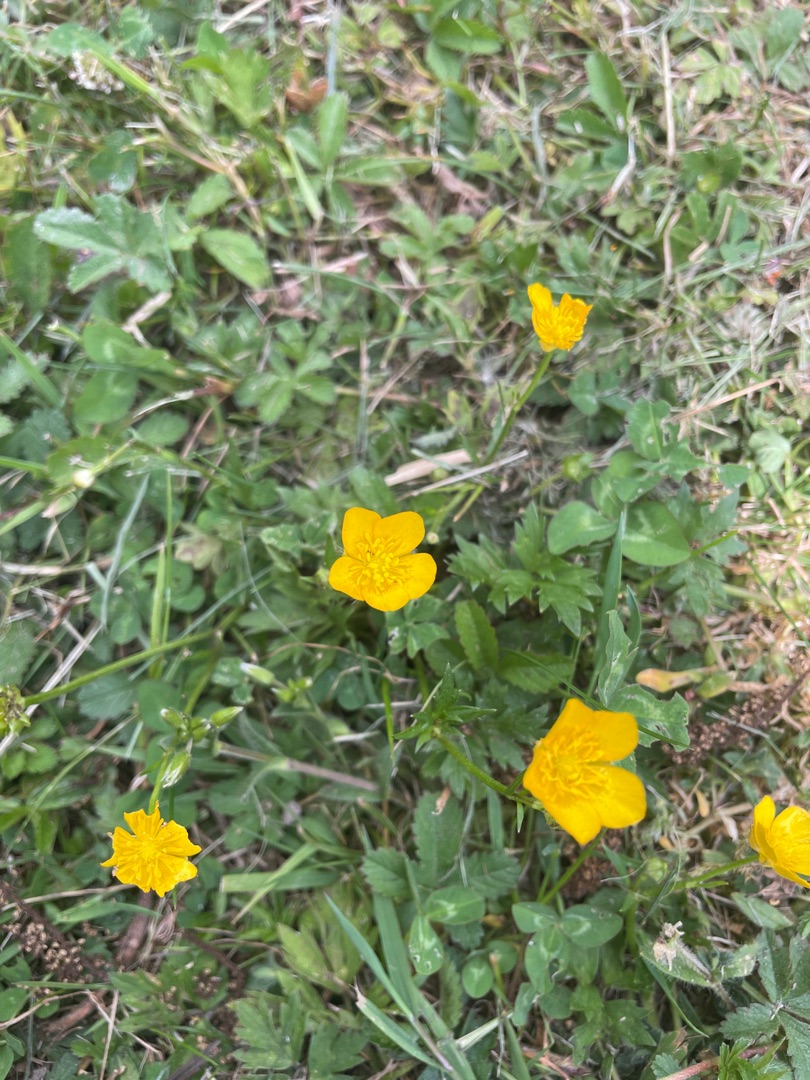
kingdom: Plantae
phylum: Tracheophyta
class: Magnoliopsida
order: Ranunculales
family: Ranunculaceae
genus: Ranunculus
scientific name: Ranunculus repens
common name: Lav ranunkel
